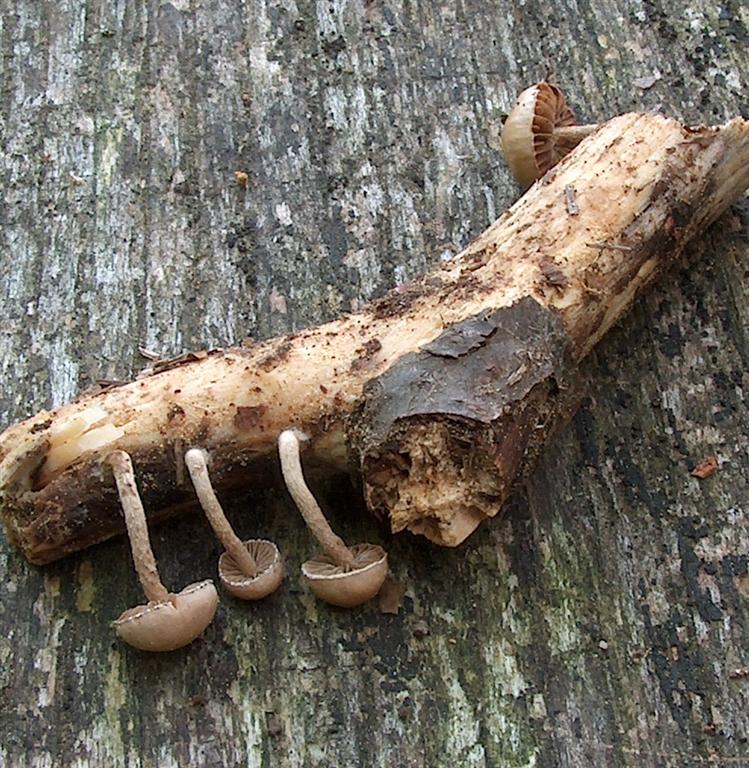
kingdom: Fungi
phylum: Basidiomycota
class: Agaricomycetes
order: Agaricales
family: Strophariaceae
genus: Deconica
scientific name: Deconica phyllogena
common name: spættet stråhat
